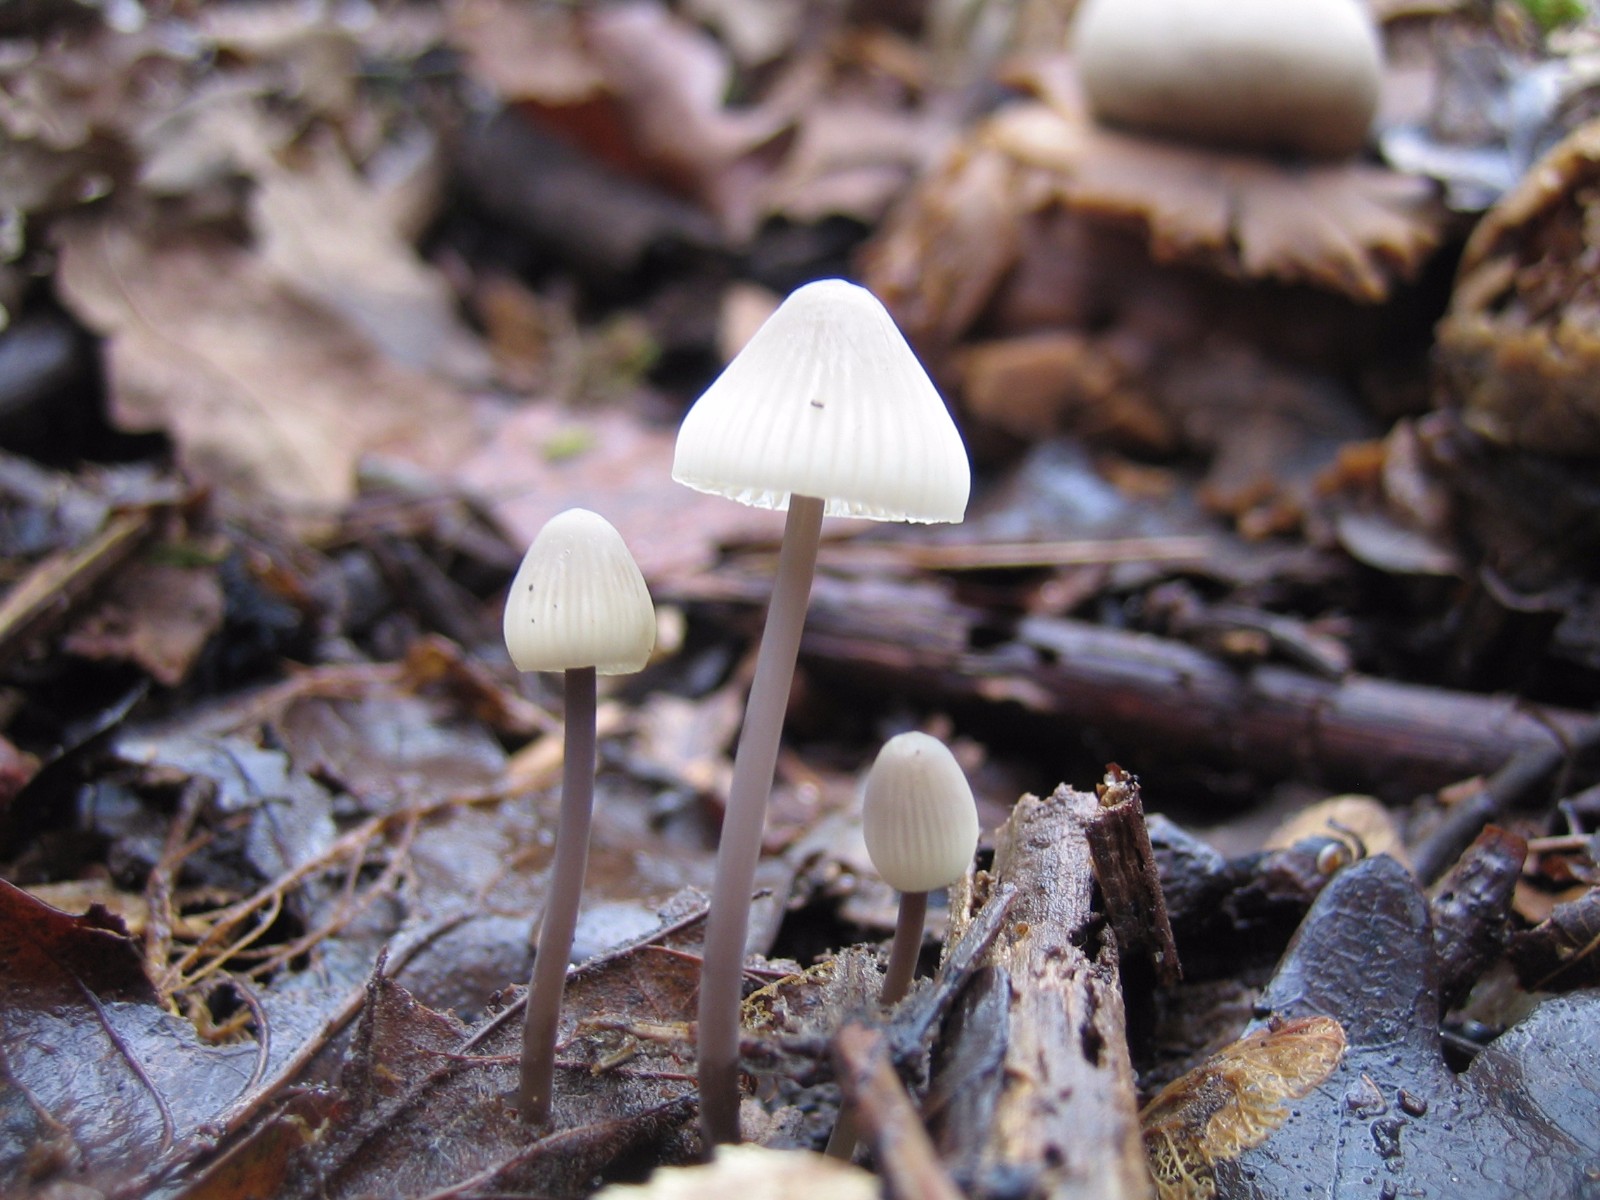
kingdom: Fungi
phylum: Basidiomycota
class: Agaricomycetes
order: Agaricales
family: Mycenaceae
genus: Mycena
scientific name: Mycena arcangeliana
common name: oliven-huesvamp
